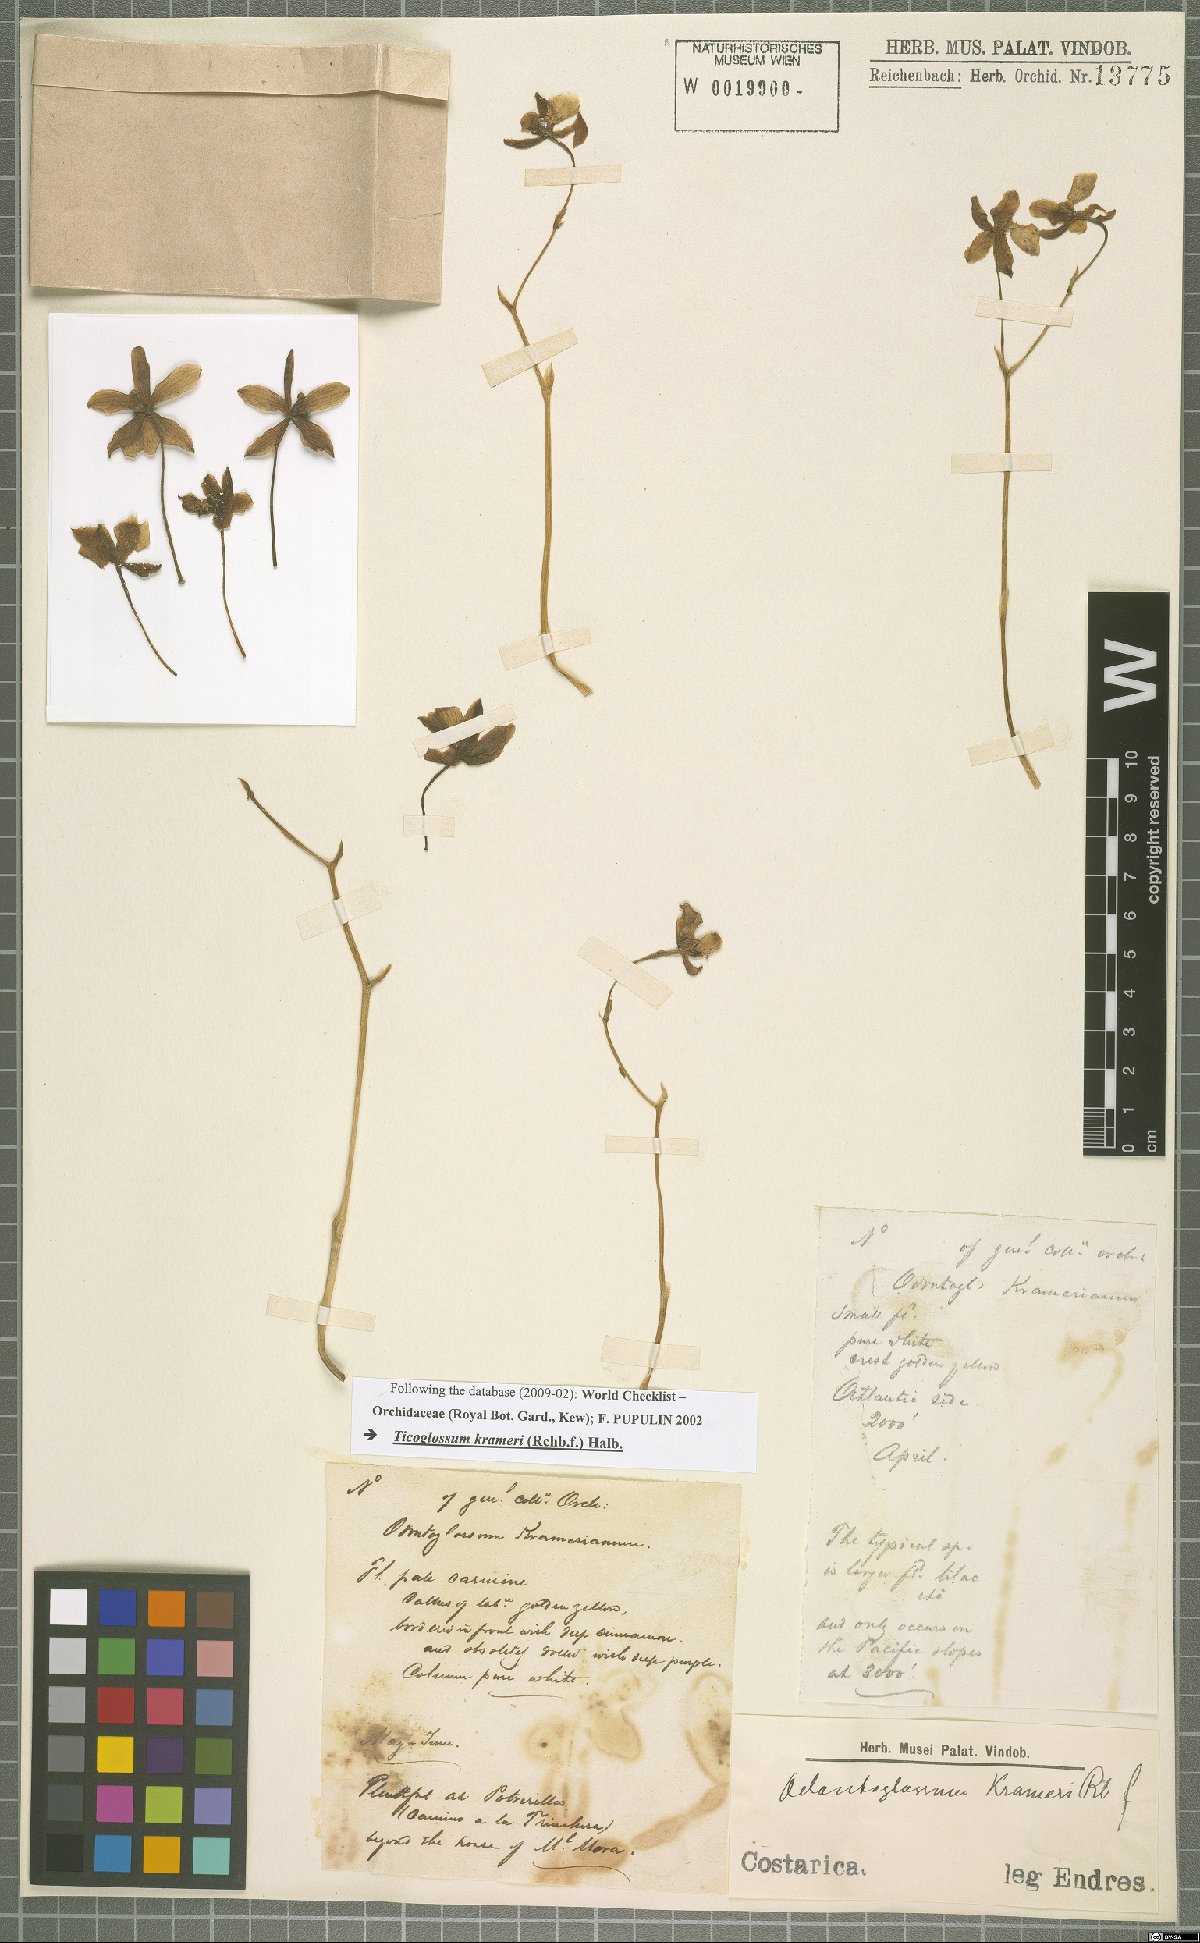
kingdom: Plantae
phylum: Tracheophyta
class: Liliopsida
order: Asparagales
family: Orchidaceae
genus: Rossioglossum
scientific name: Rossioglossum krameri
